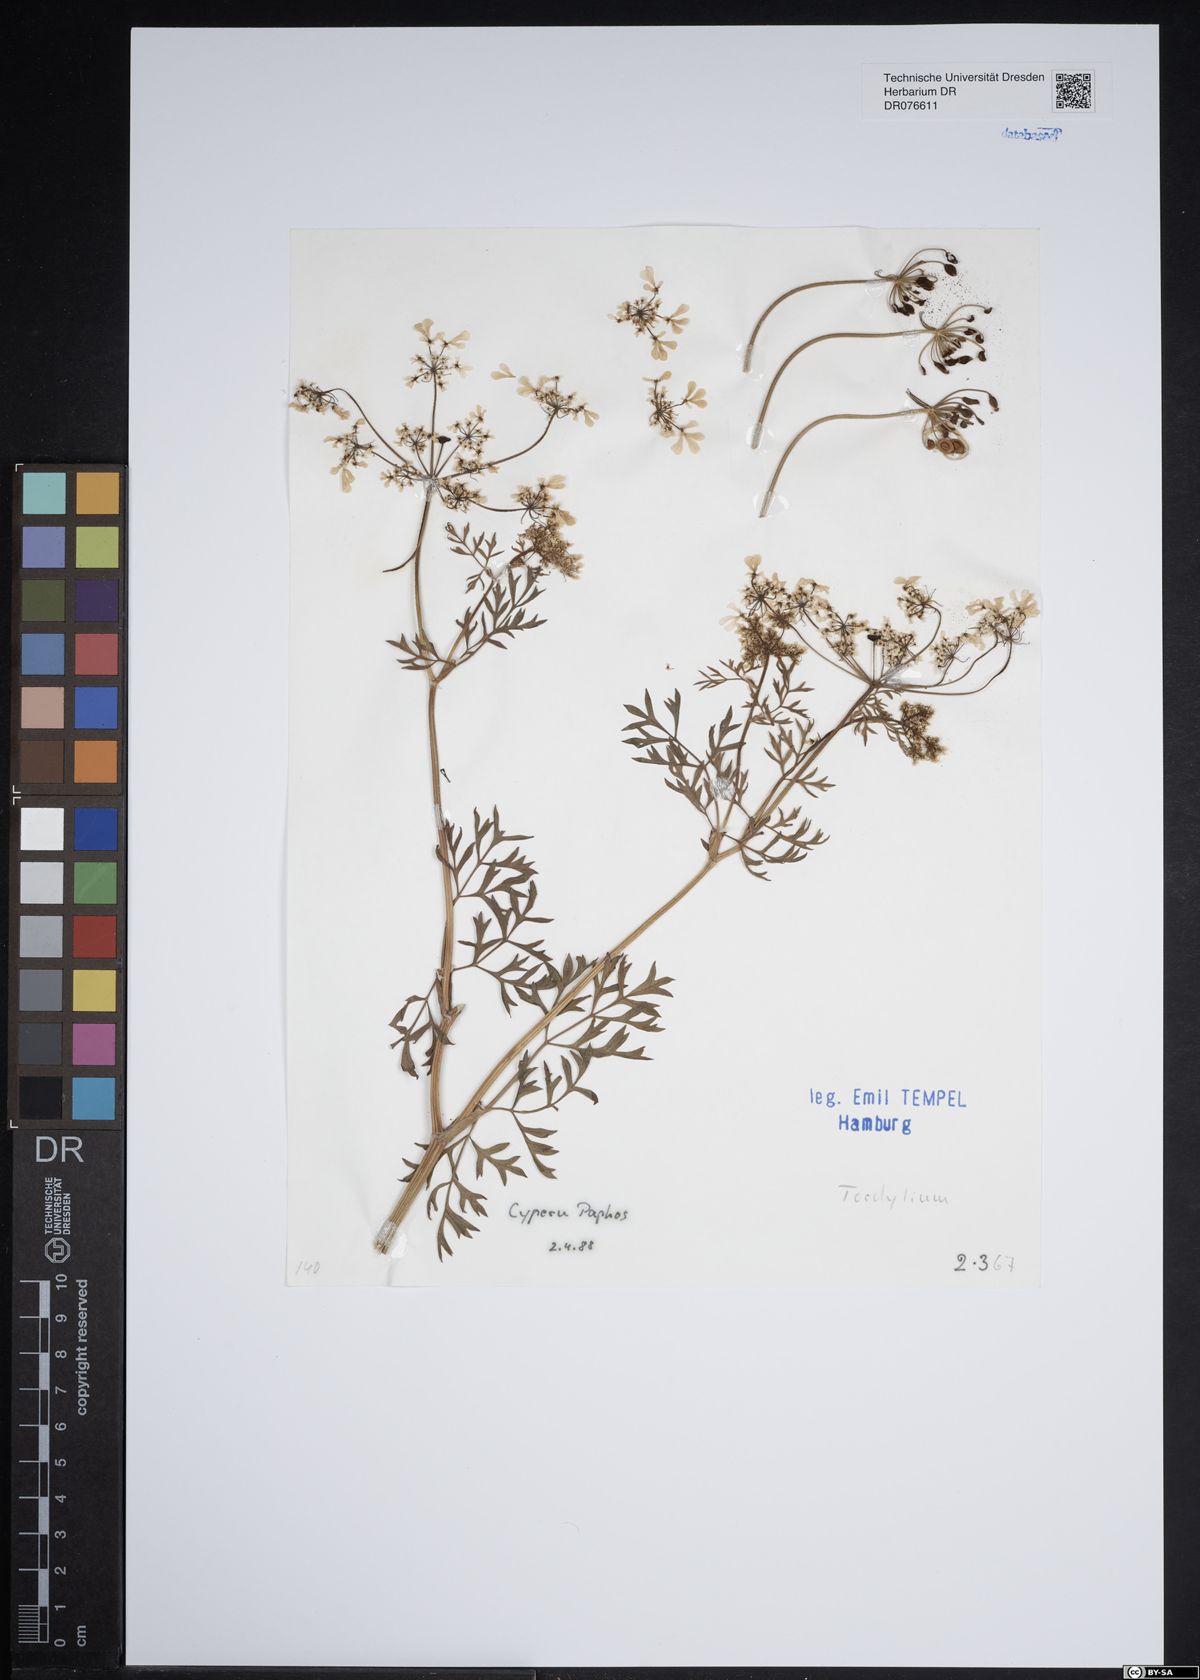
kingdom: Plantae
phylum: Tracheophyta
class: Magnoliopsida
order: Apiales
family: Apiaceae
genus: Tordylium
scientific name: Tordylium
